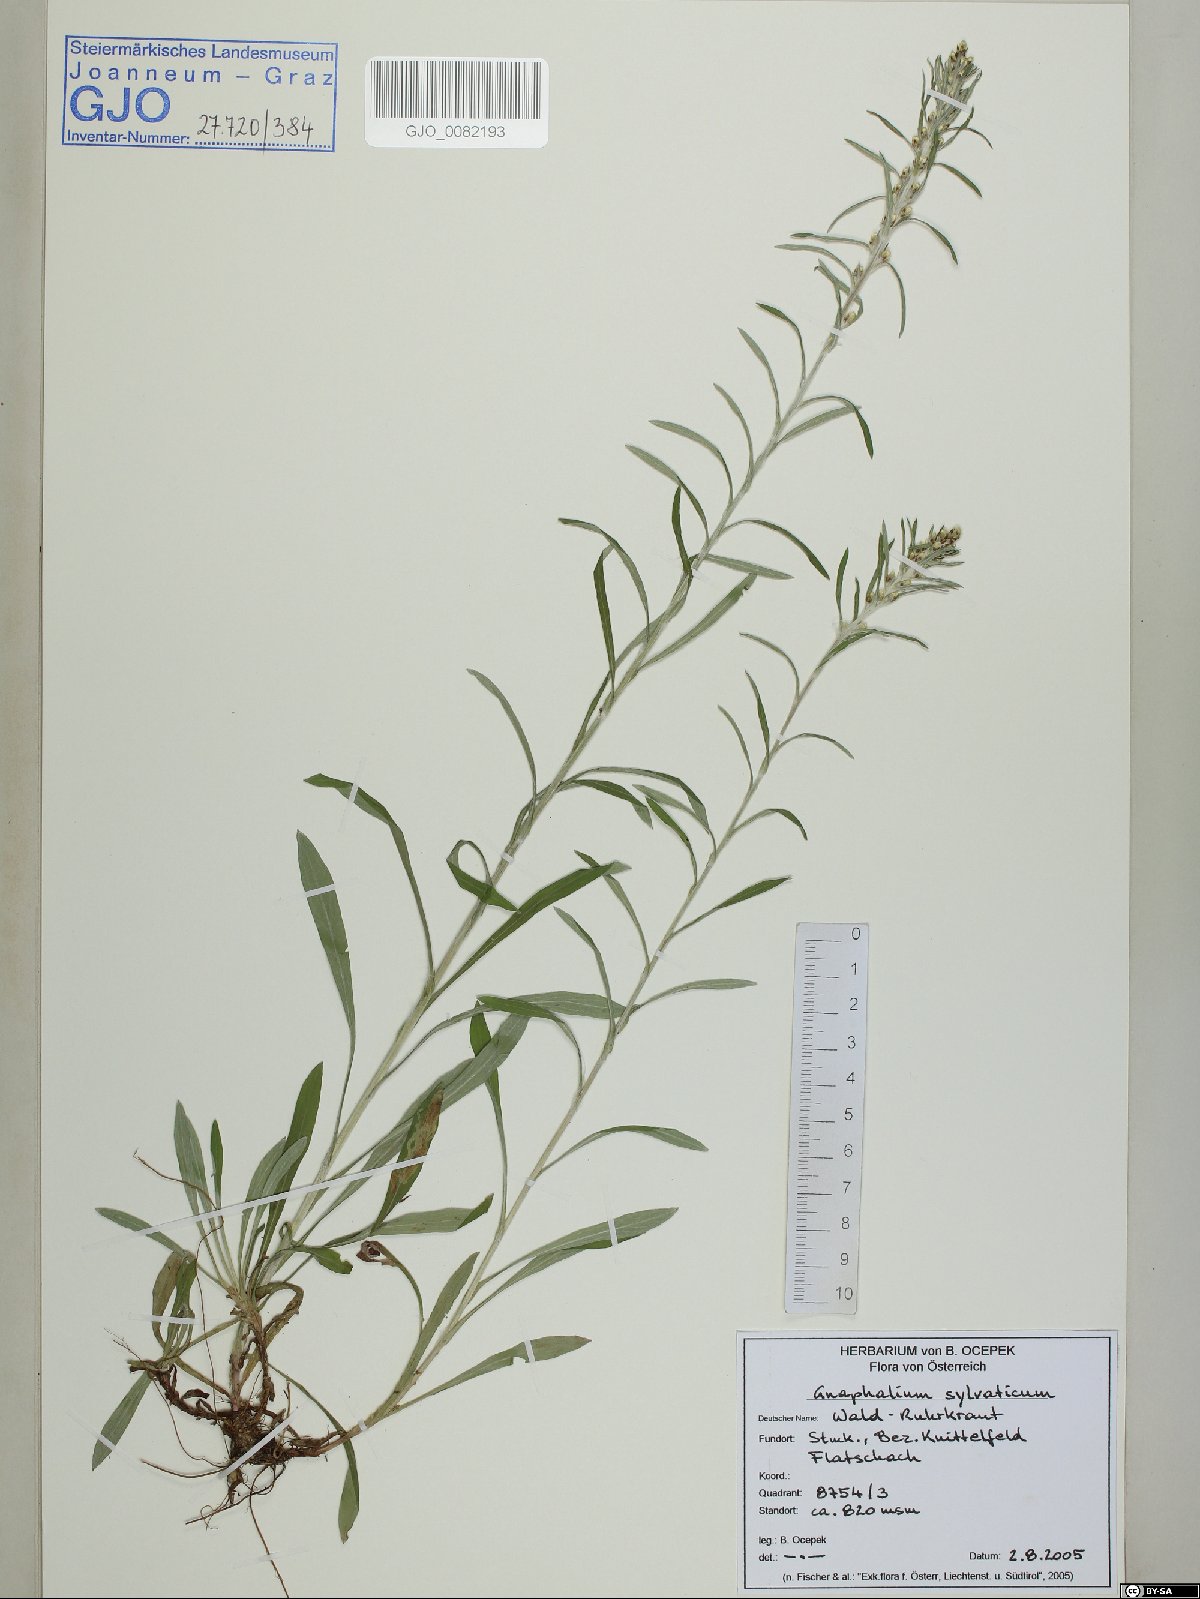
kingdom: Plantae
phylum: Tracheophyta
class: Magnoliopsida
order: Asterales
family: Asteraceae
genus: Omalotheca
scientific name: Omalotheca sylvatica
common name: Heath cudweed
